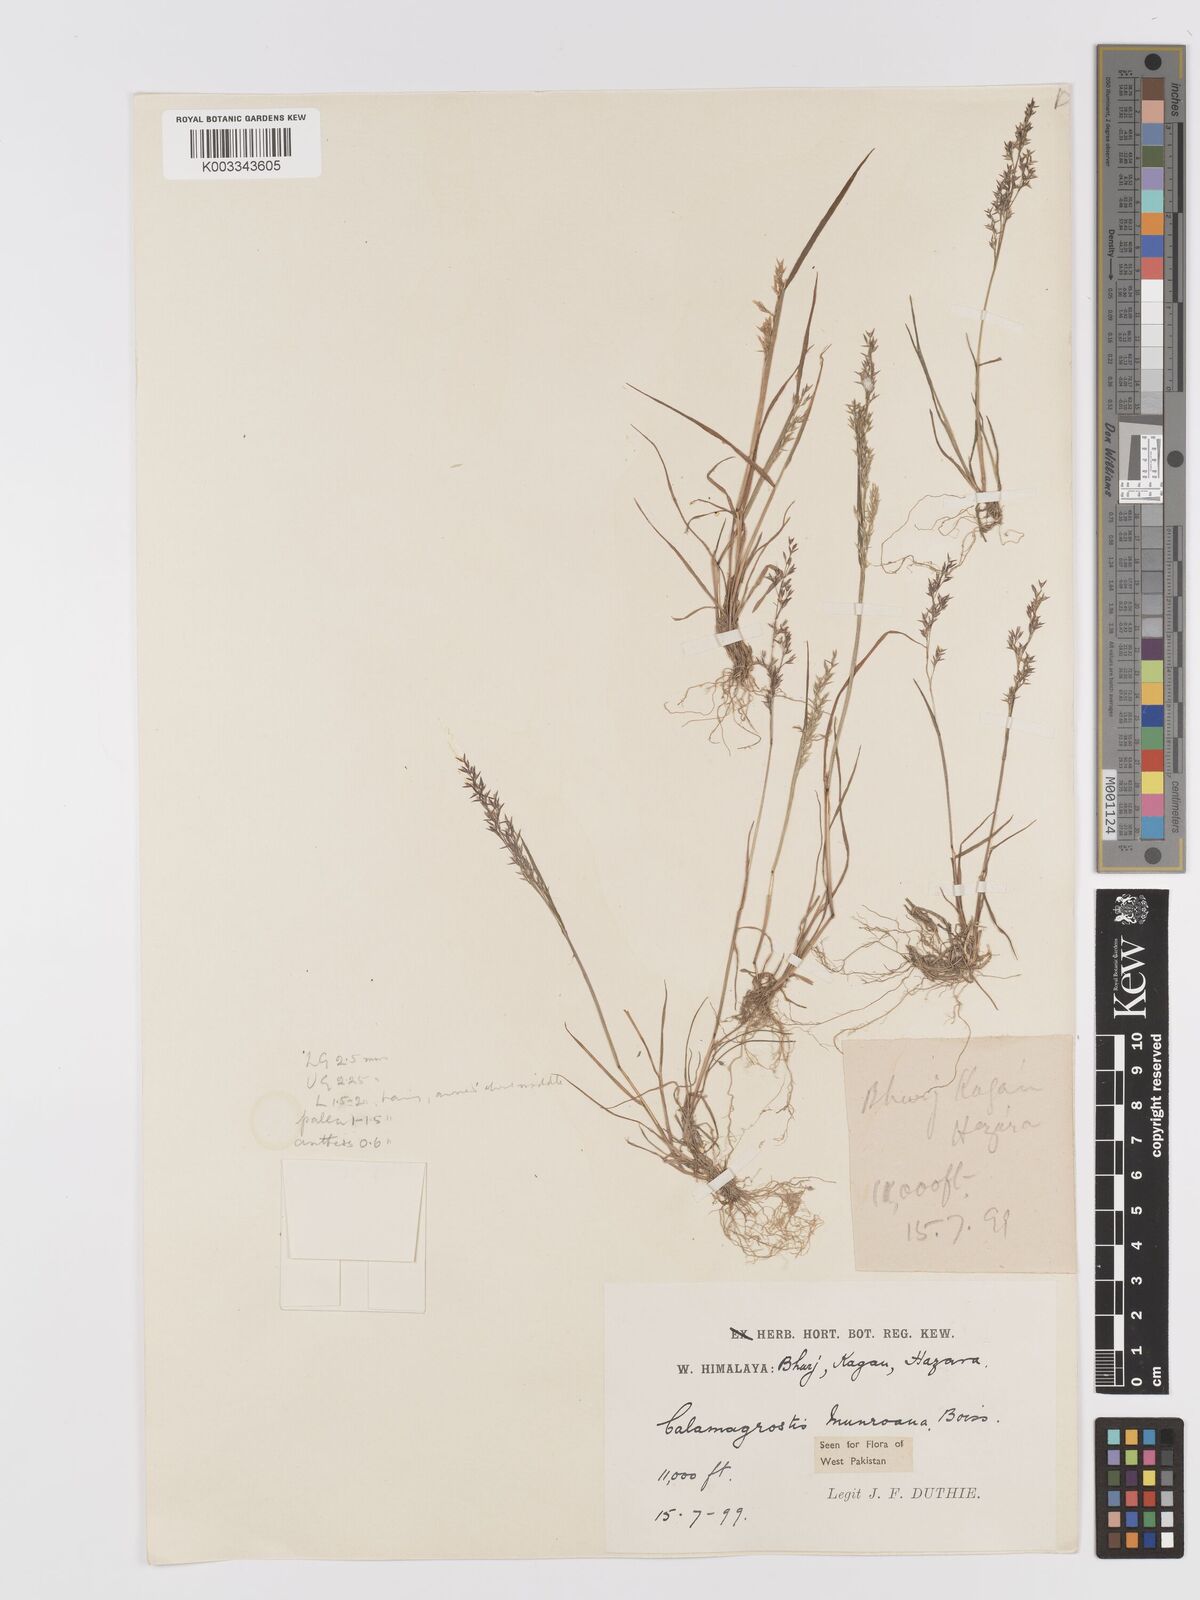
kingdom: Plantae
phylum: Tracheophyta
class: Liliopsida
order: Poales
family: Poaceae
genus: Agrostis
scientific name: Agrostis munroana
